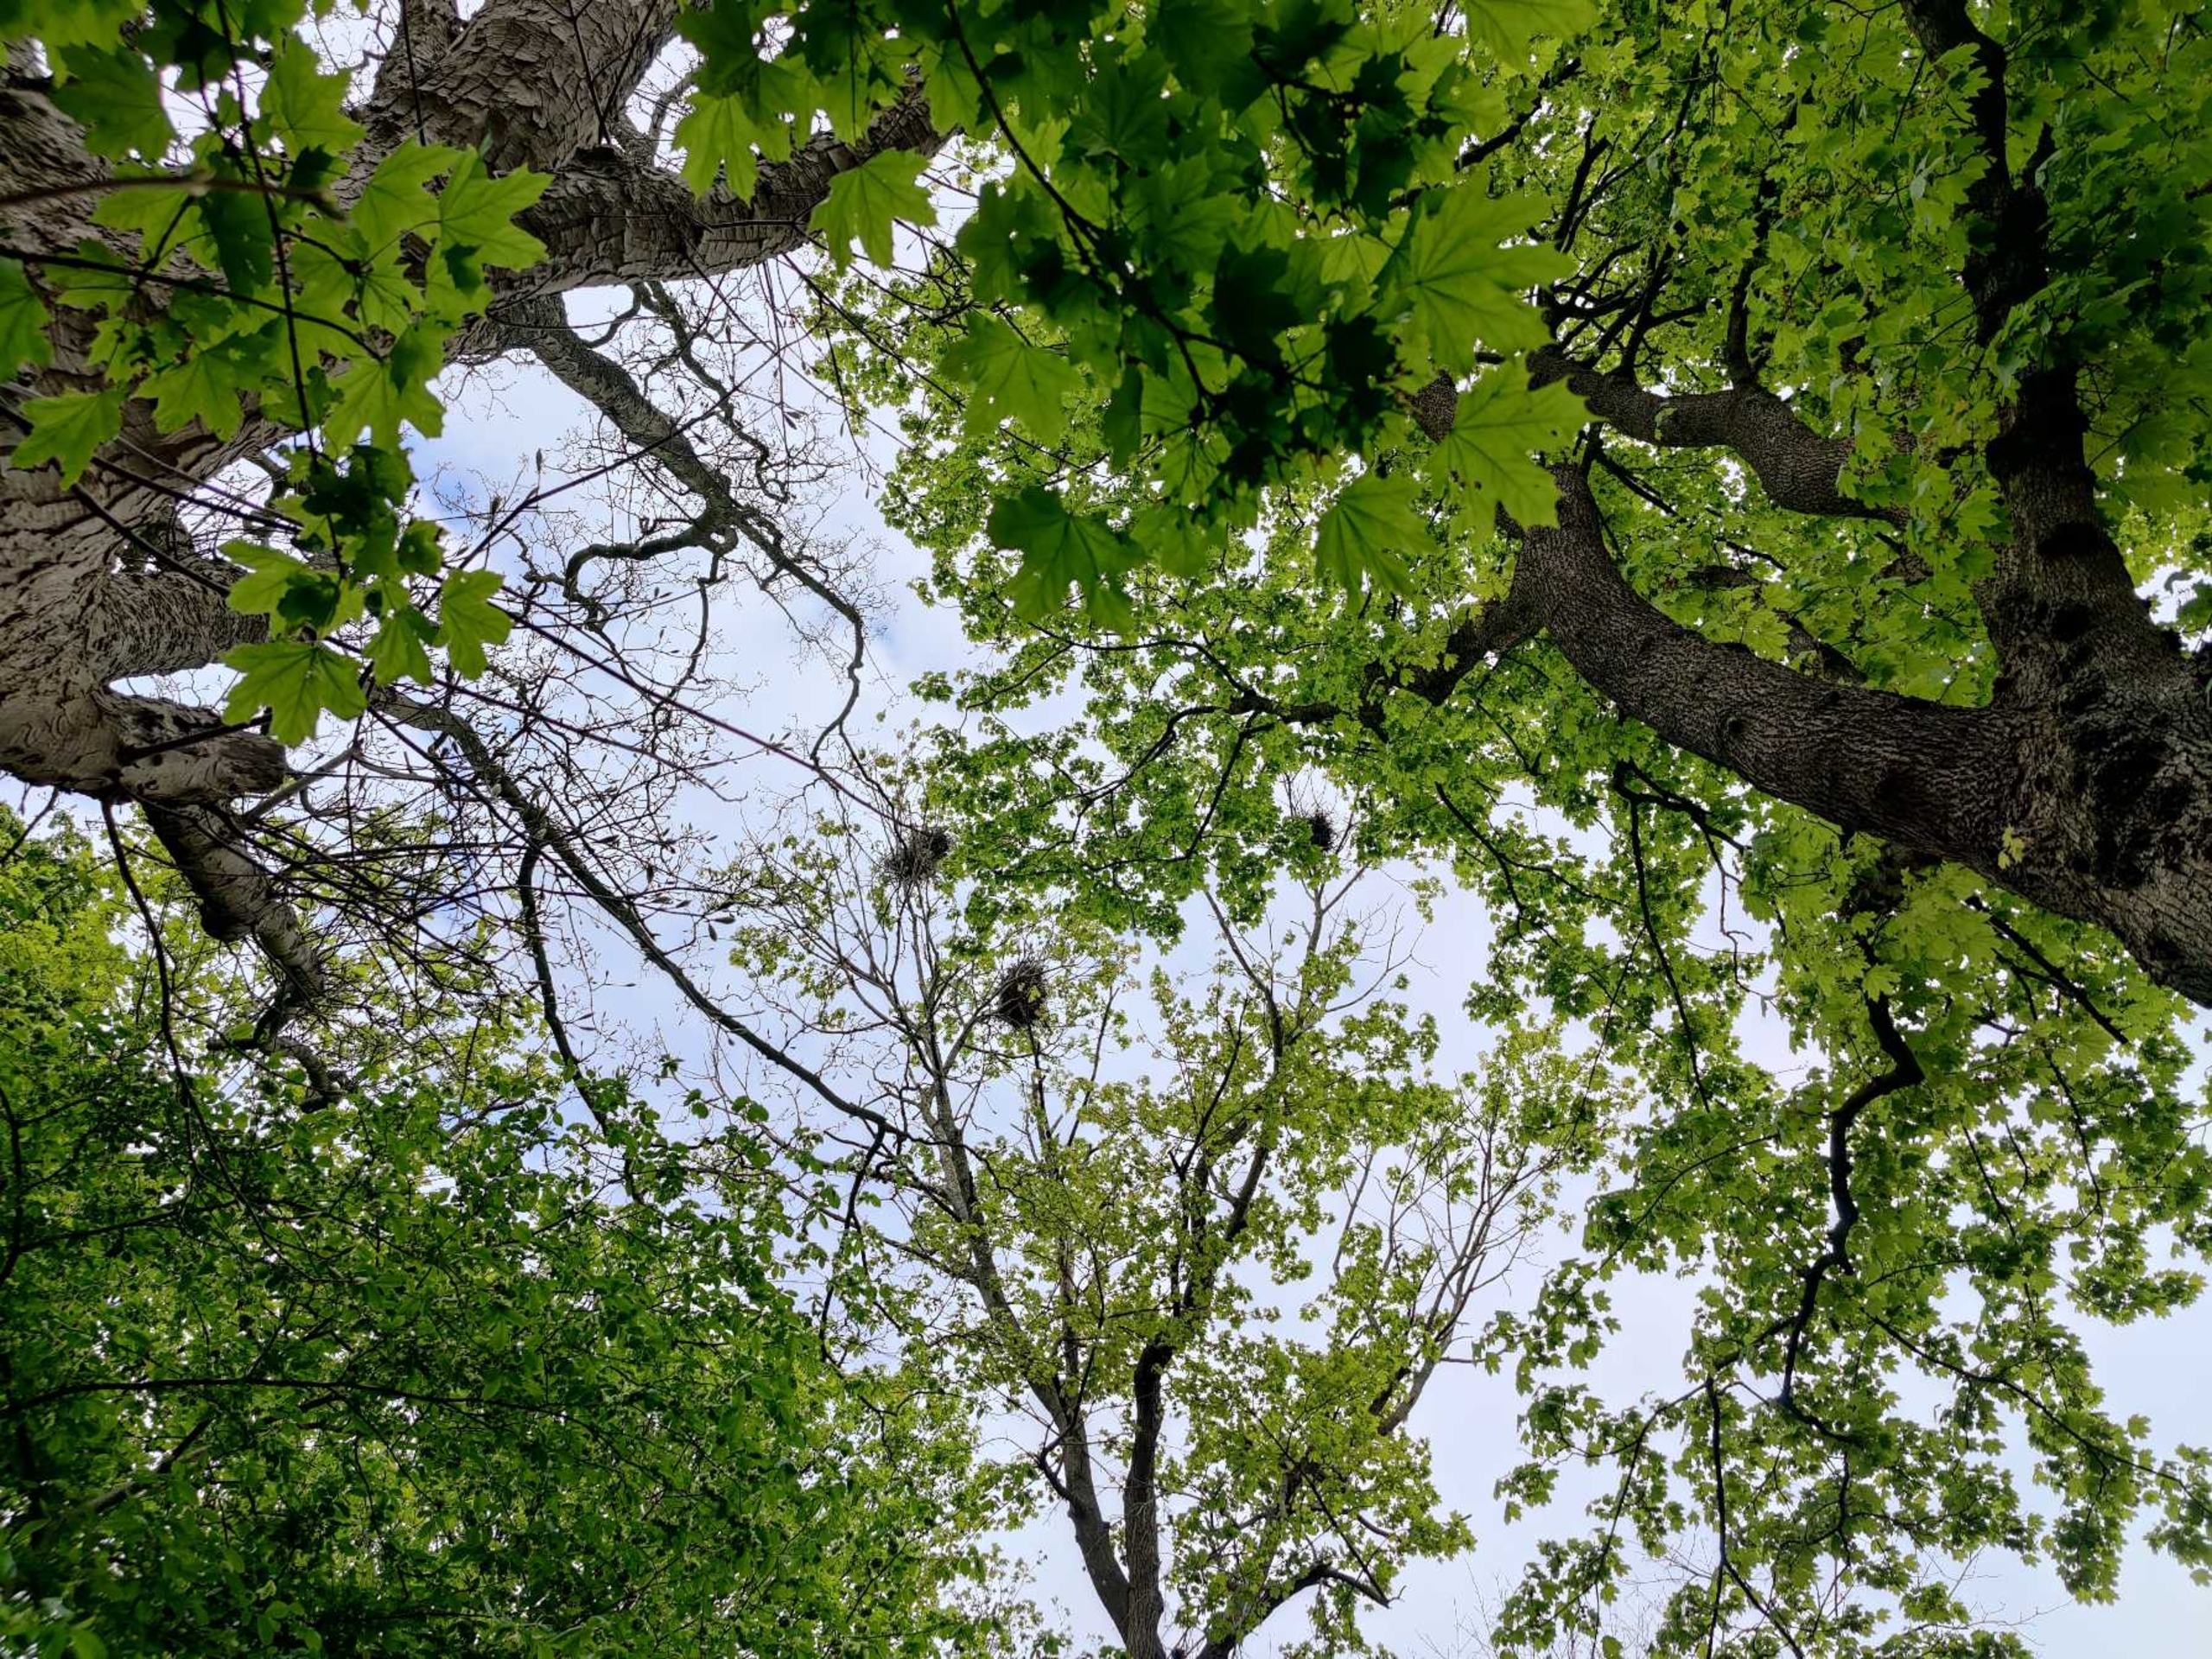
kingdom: Animalia
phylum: Chordata
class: Aves
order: Passeriformes
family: Corvidae
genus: Corvus
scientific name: Corvus frugilegus
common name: Råge
